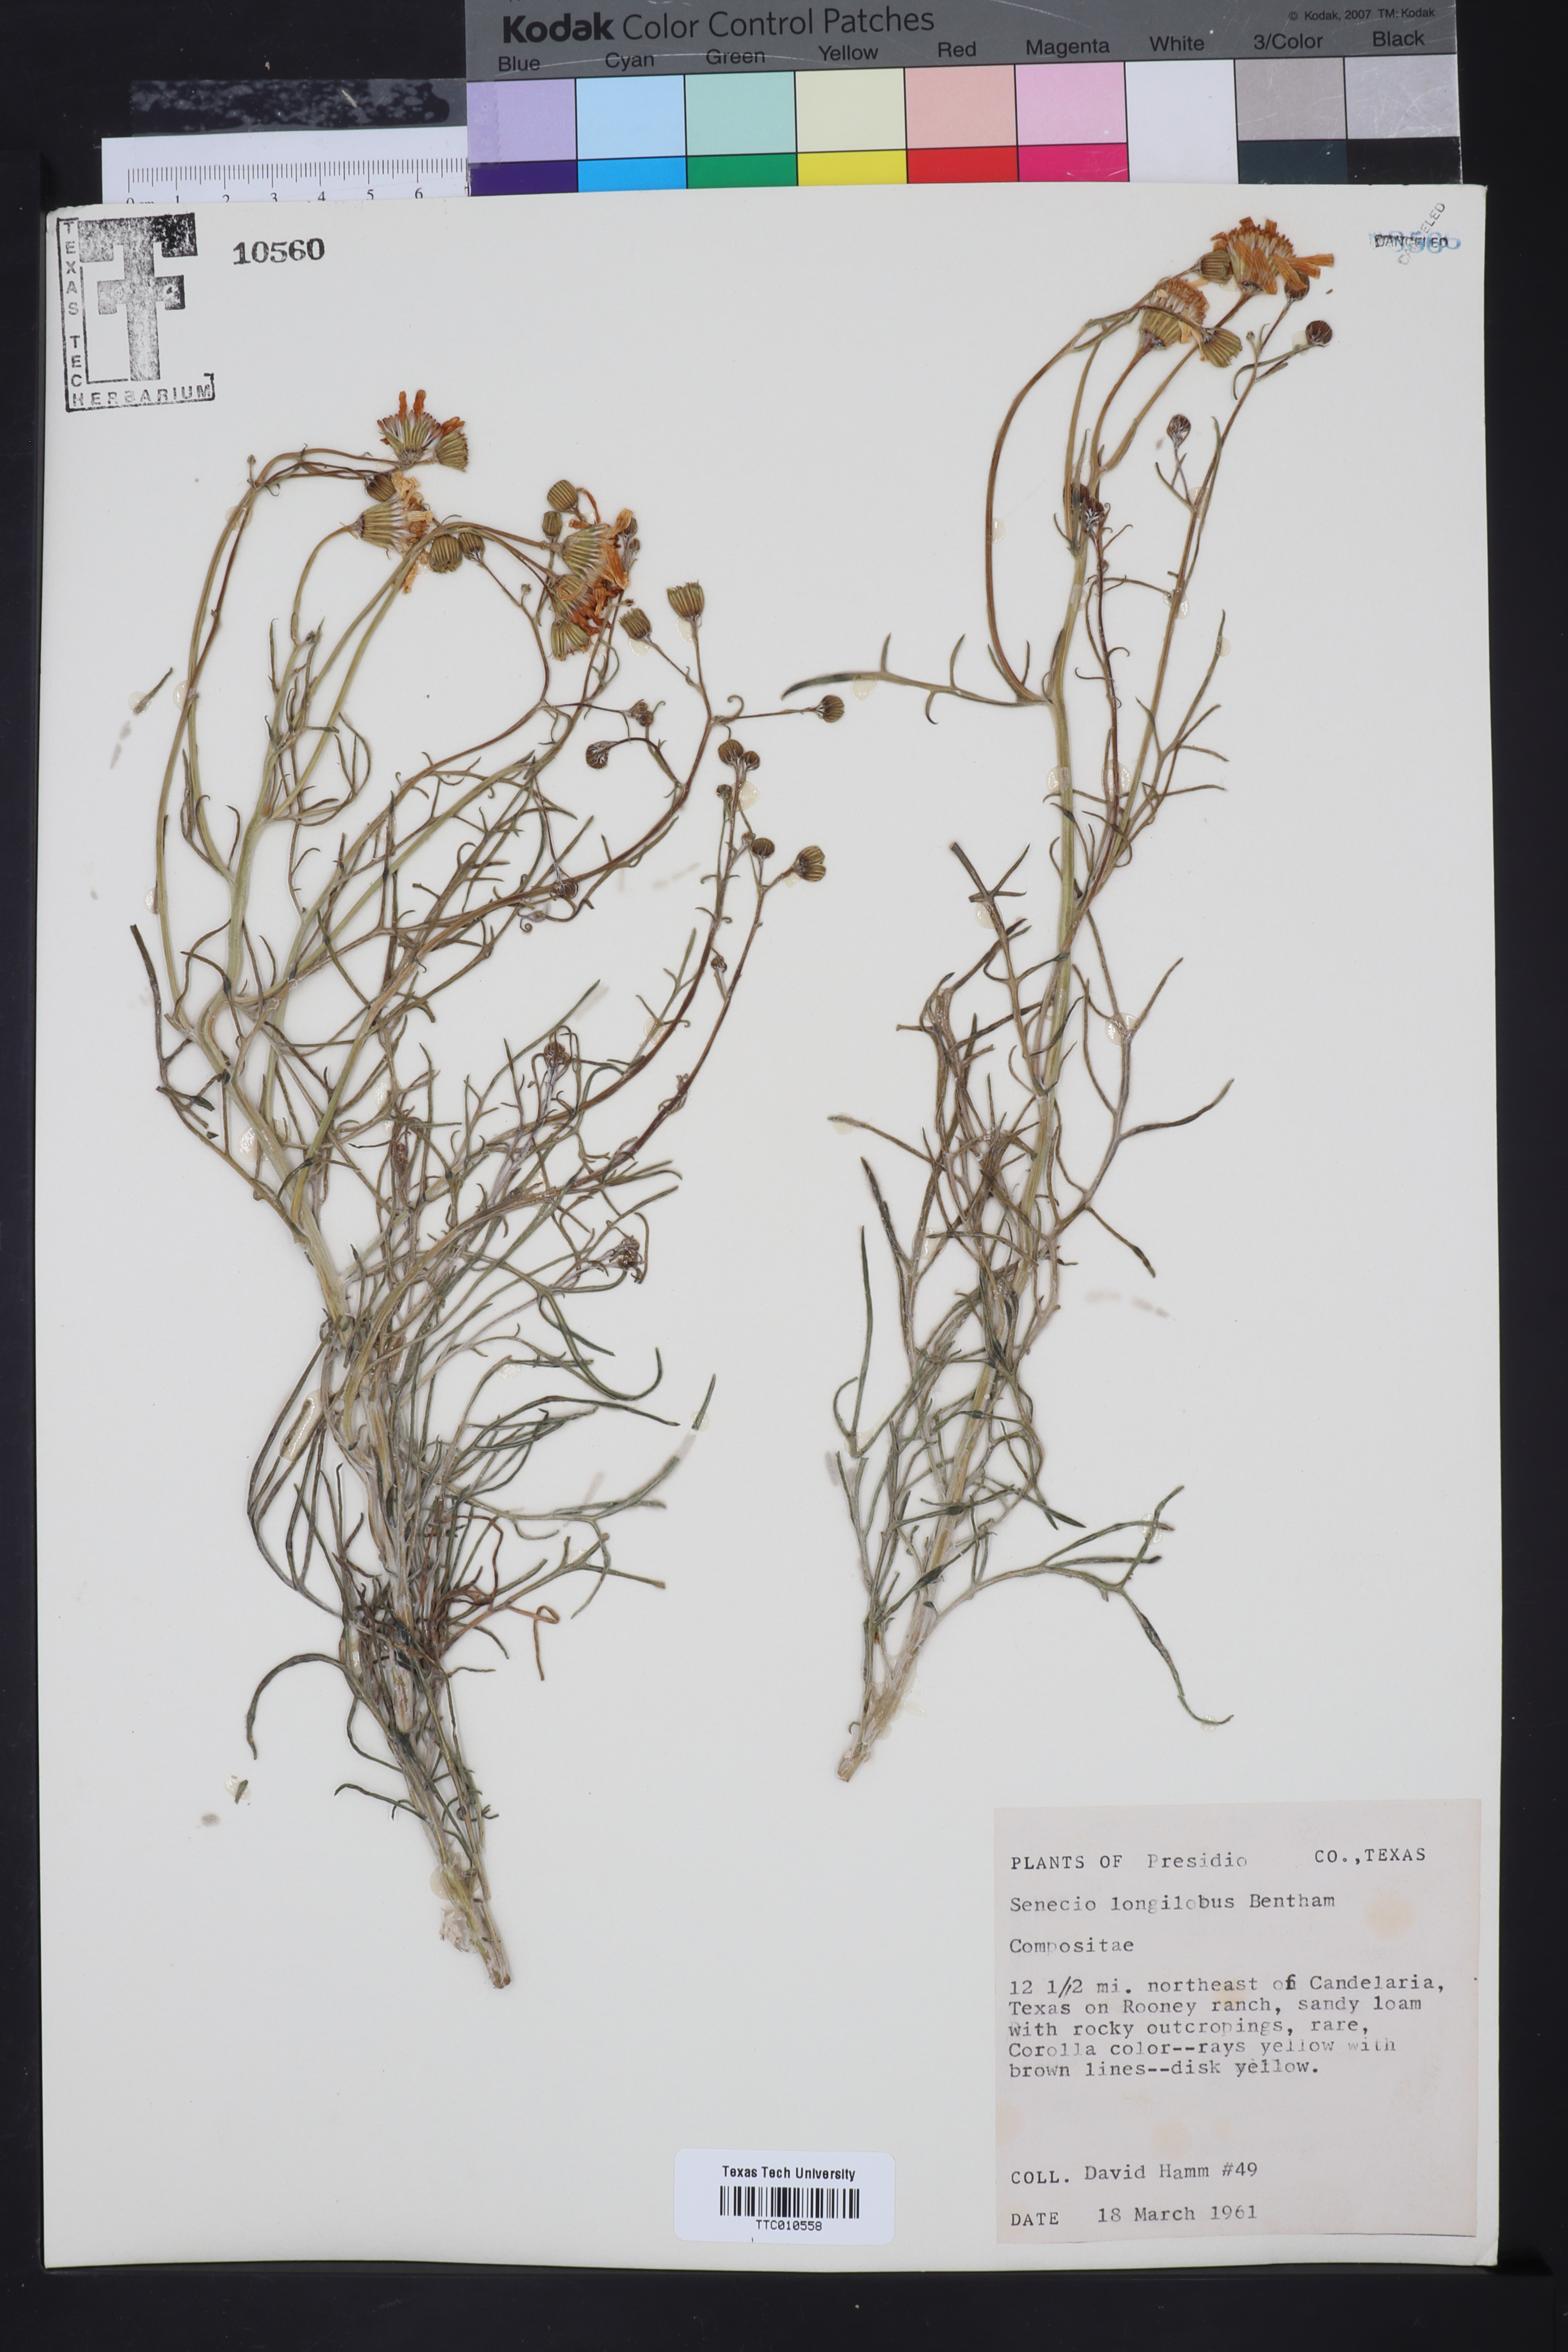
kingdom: Plantae
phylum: Tracheophyta
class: Magnoliopsida
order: Asterales
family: Asteraceae
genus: Senecio
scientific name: Senecio flaccidus
